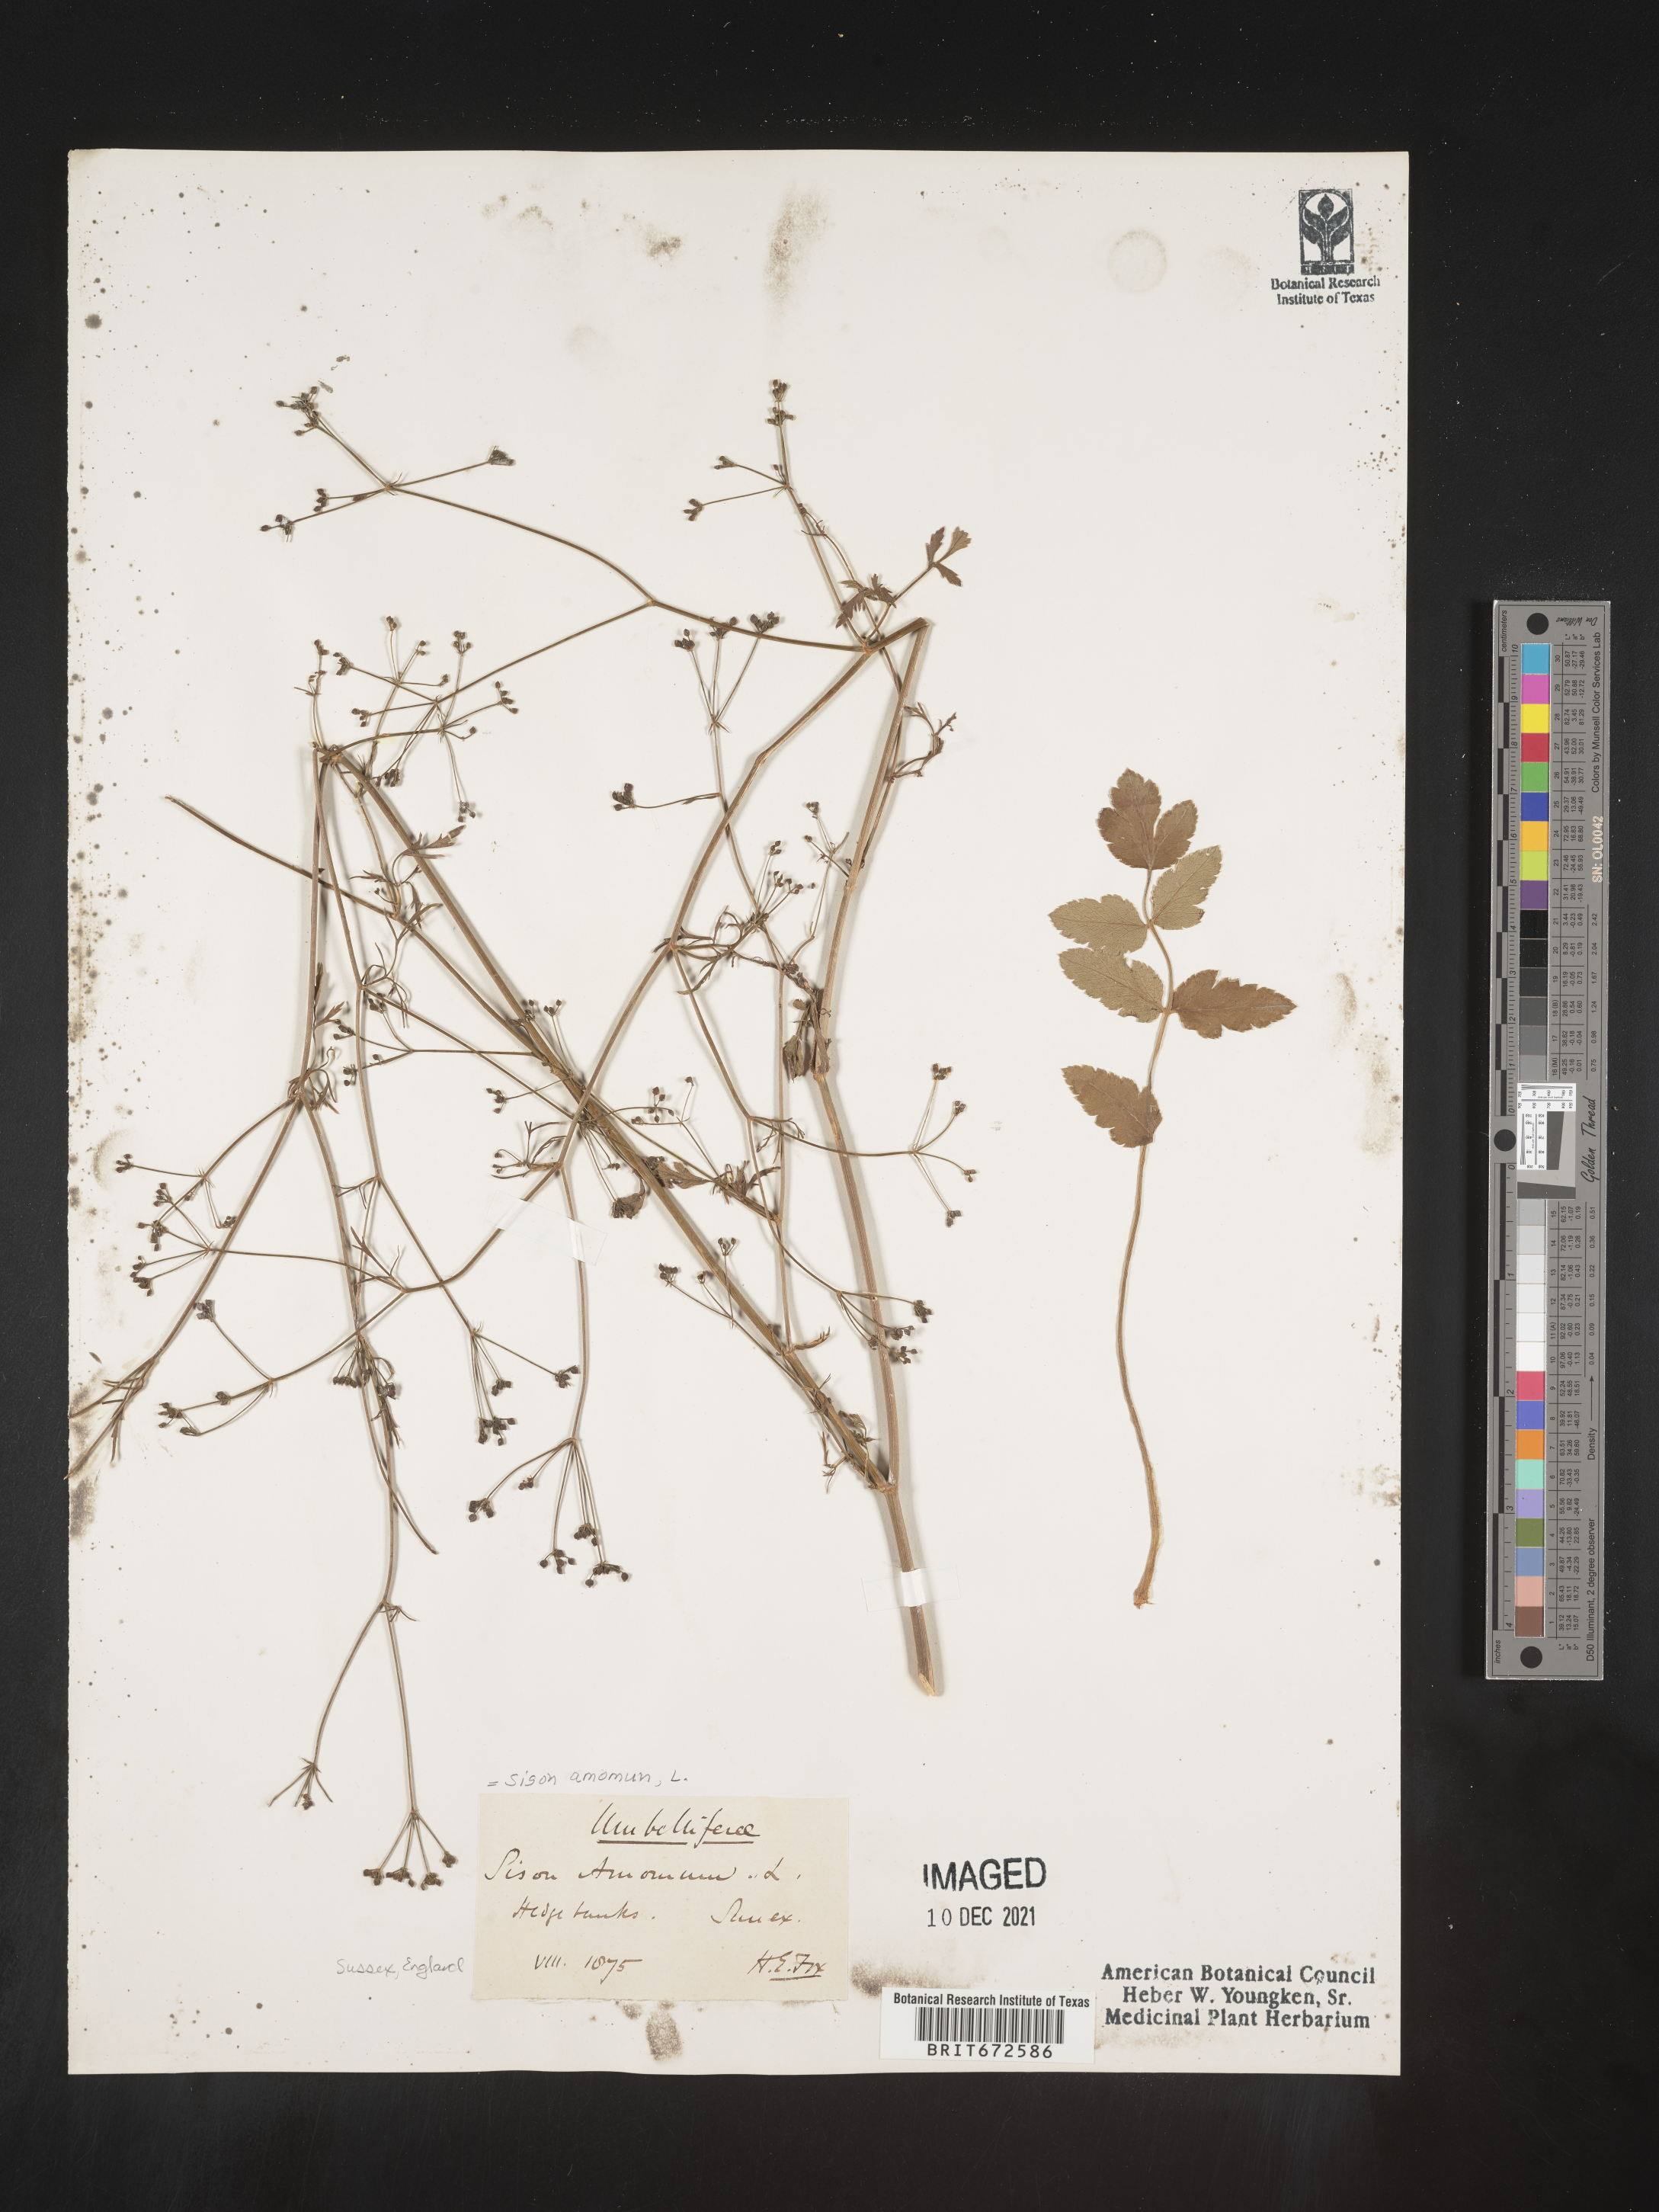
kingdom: Plantae
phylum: Tracheophyta
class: Magnoliopsida
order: Apiales
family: Apiaceae
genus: Sison
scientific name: Sison amomum
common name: Stone-parsley
